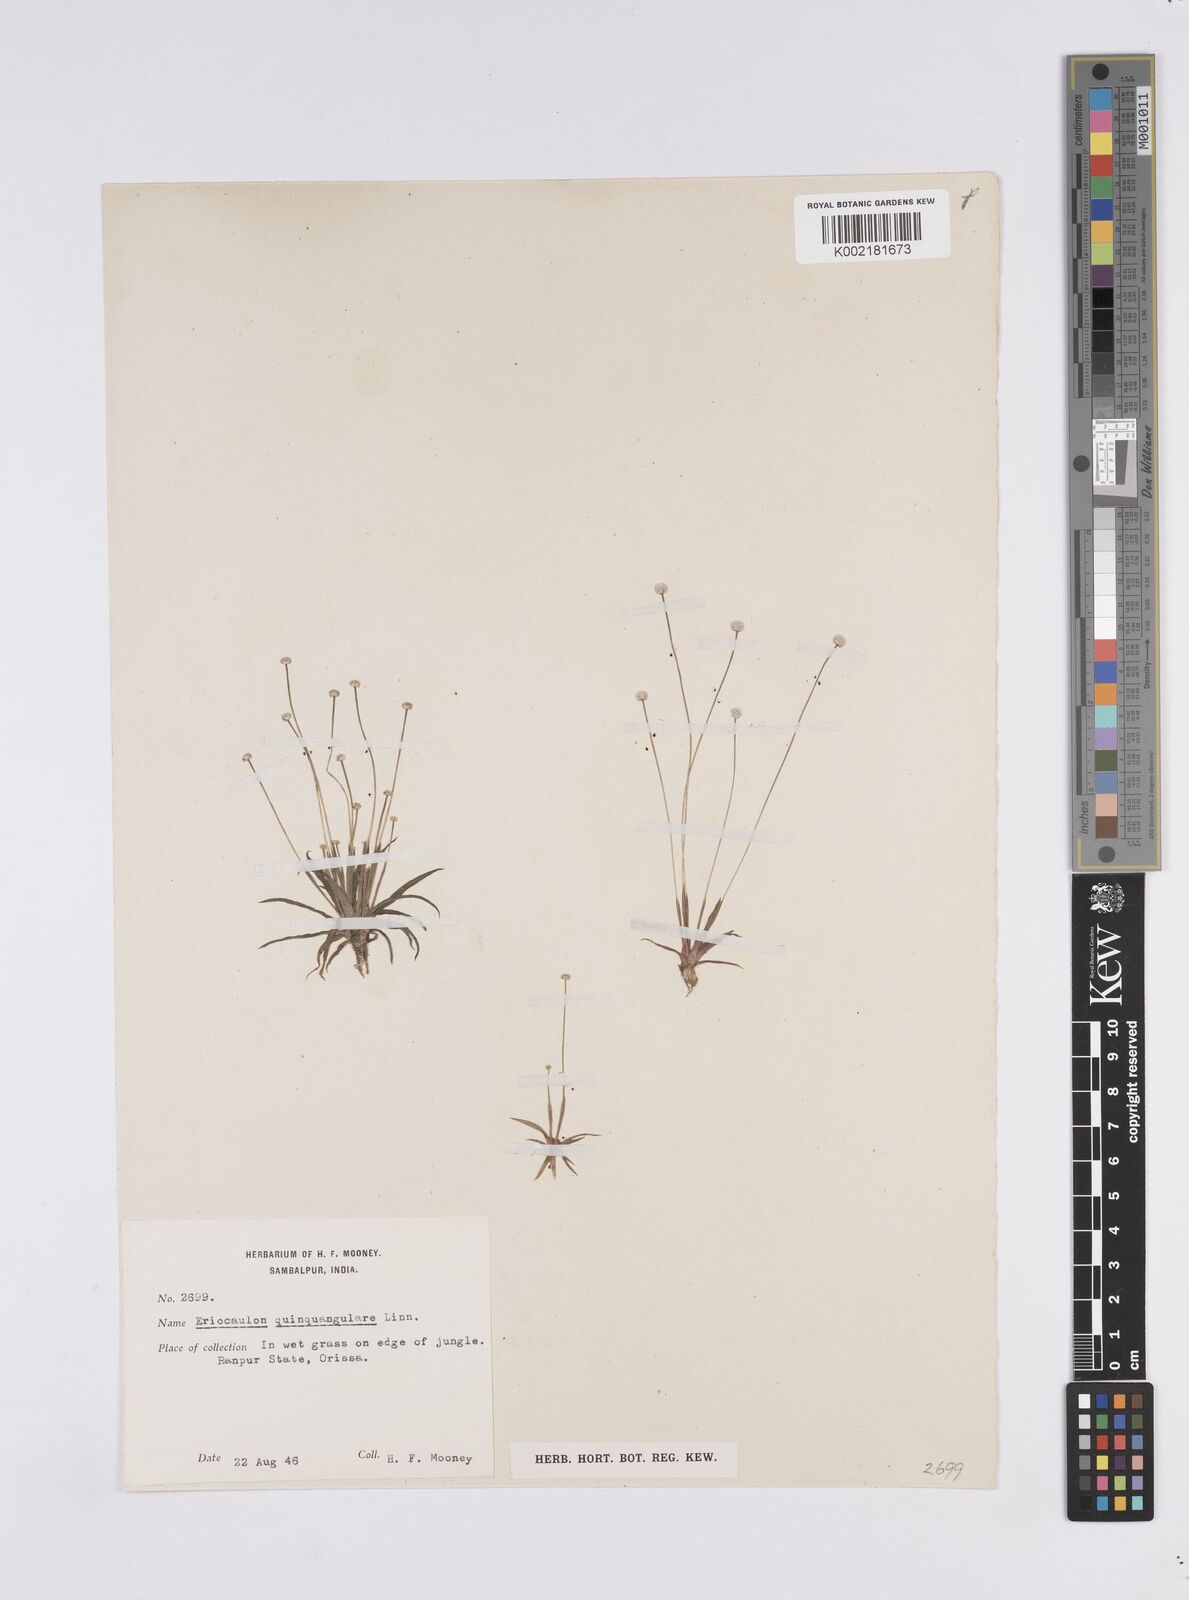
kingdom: Plantae
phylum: Tracheophyta
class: Liliopsida
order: Poales
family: Eriocaulaceae
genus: Eriocaulon
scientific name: Eriocaulon quinquangulare
